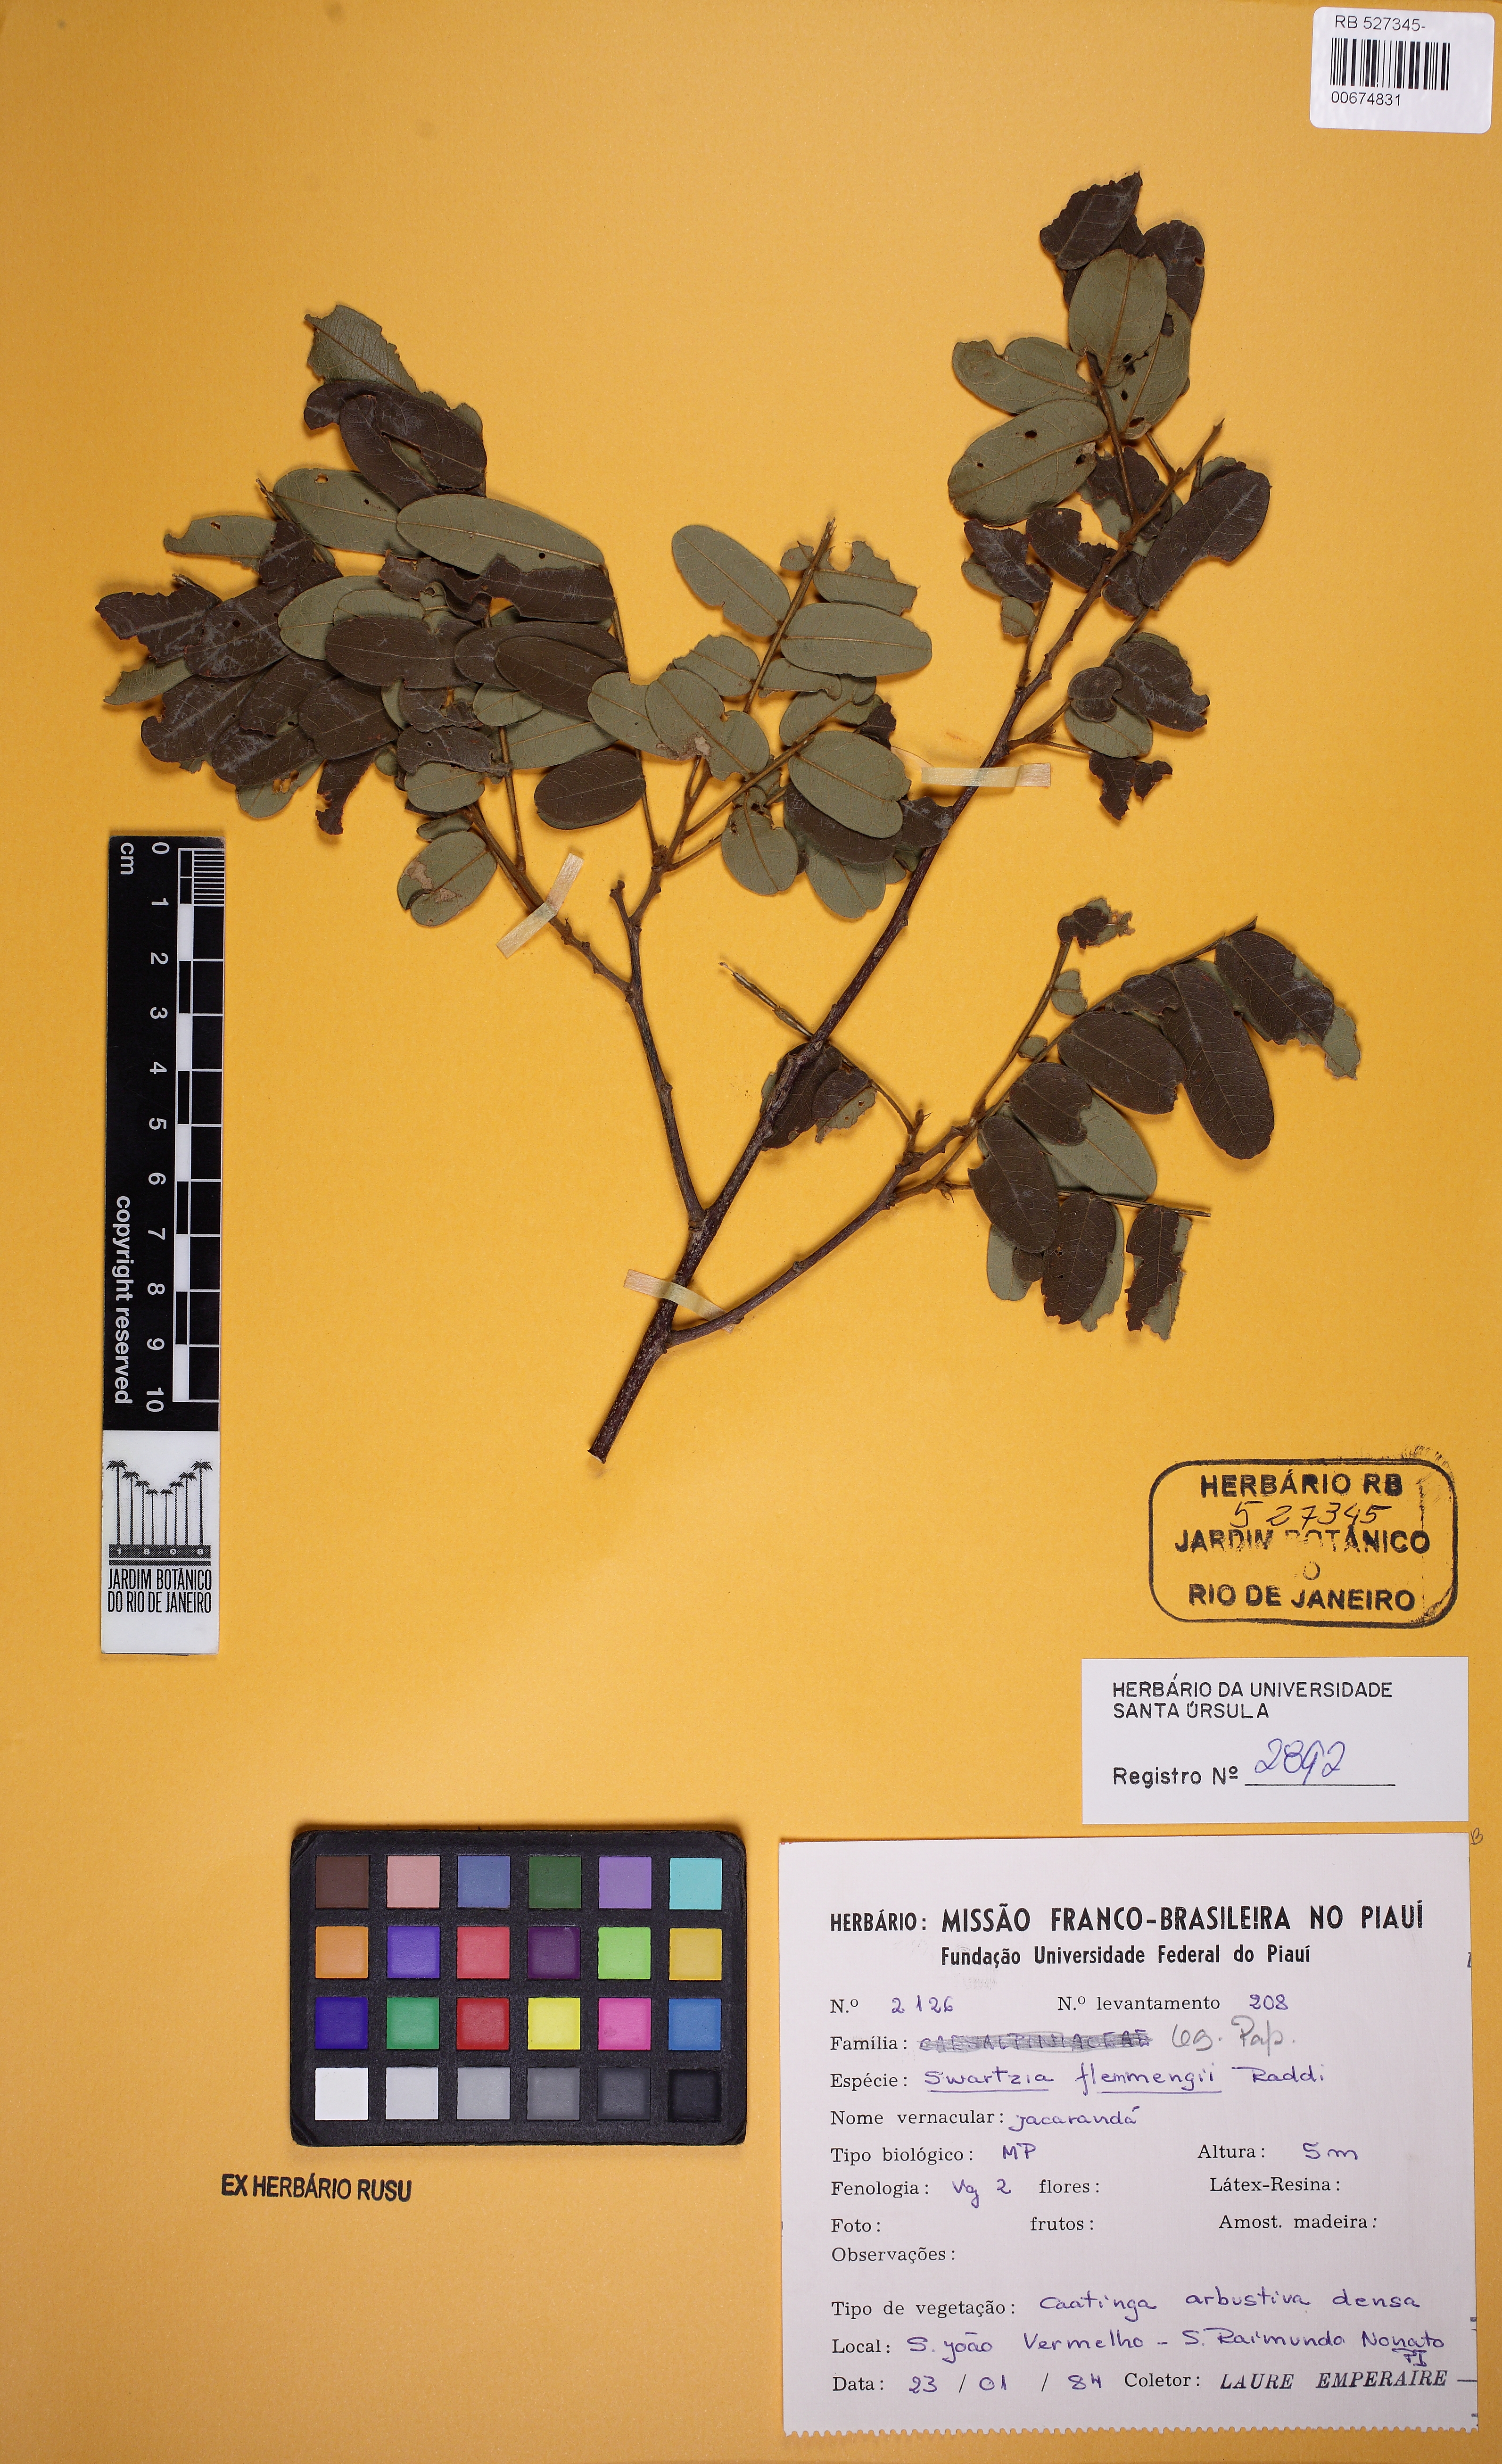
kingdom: Plantae
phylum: Tracheophyta
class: Magnoliopsida
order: Fabales
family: Fabaceae
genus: Swartzia
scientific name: Swartzia flaemingii
